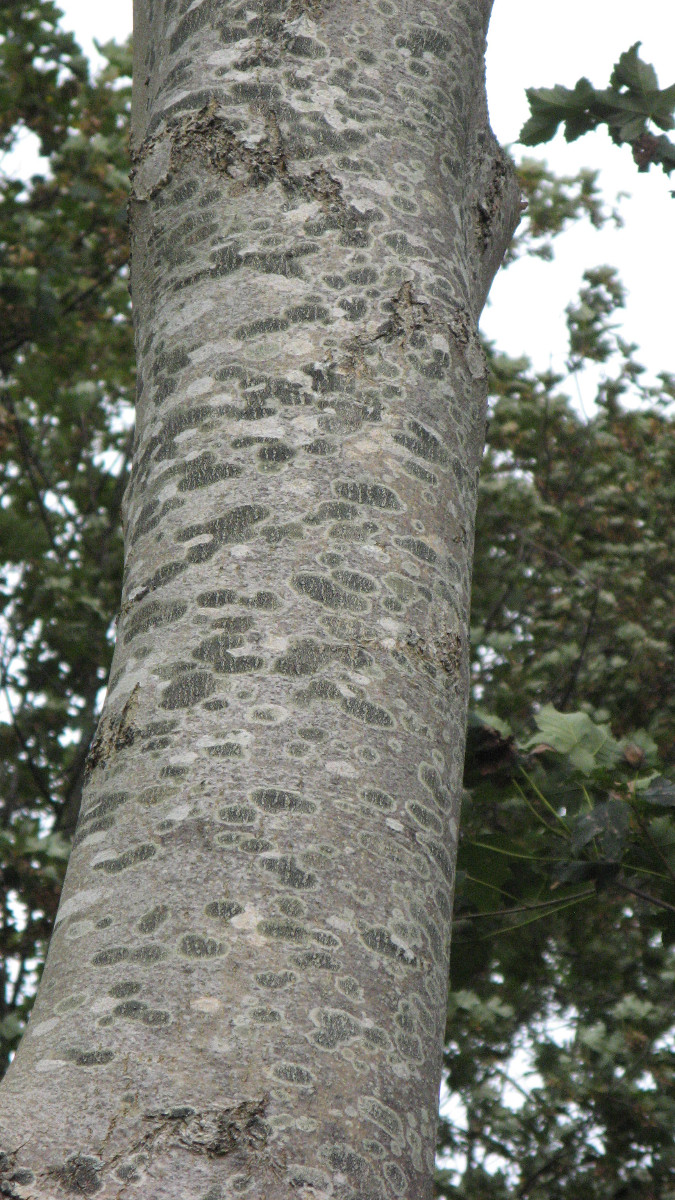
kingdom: Fungi
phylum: Ascomycota
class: Lecanoromycetes
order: Lecanorales
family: Lecanoraceae
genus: Lecidella
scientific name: Lecidella elaeochroma
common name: grågrøn skivelav
